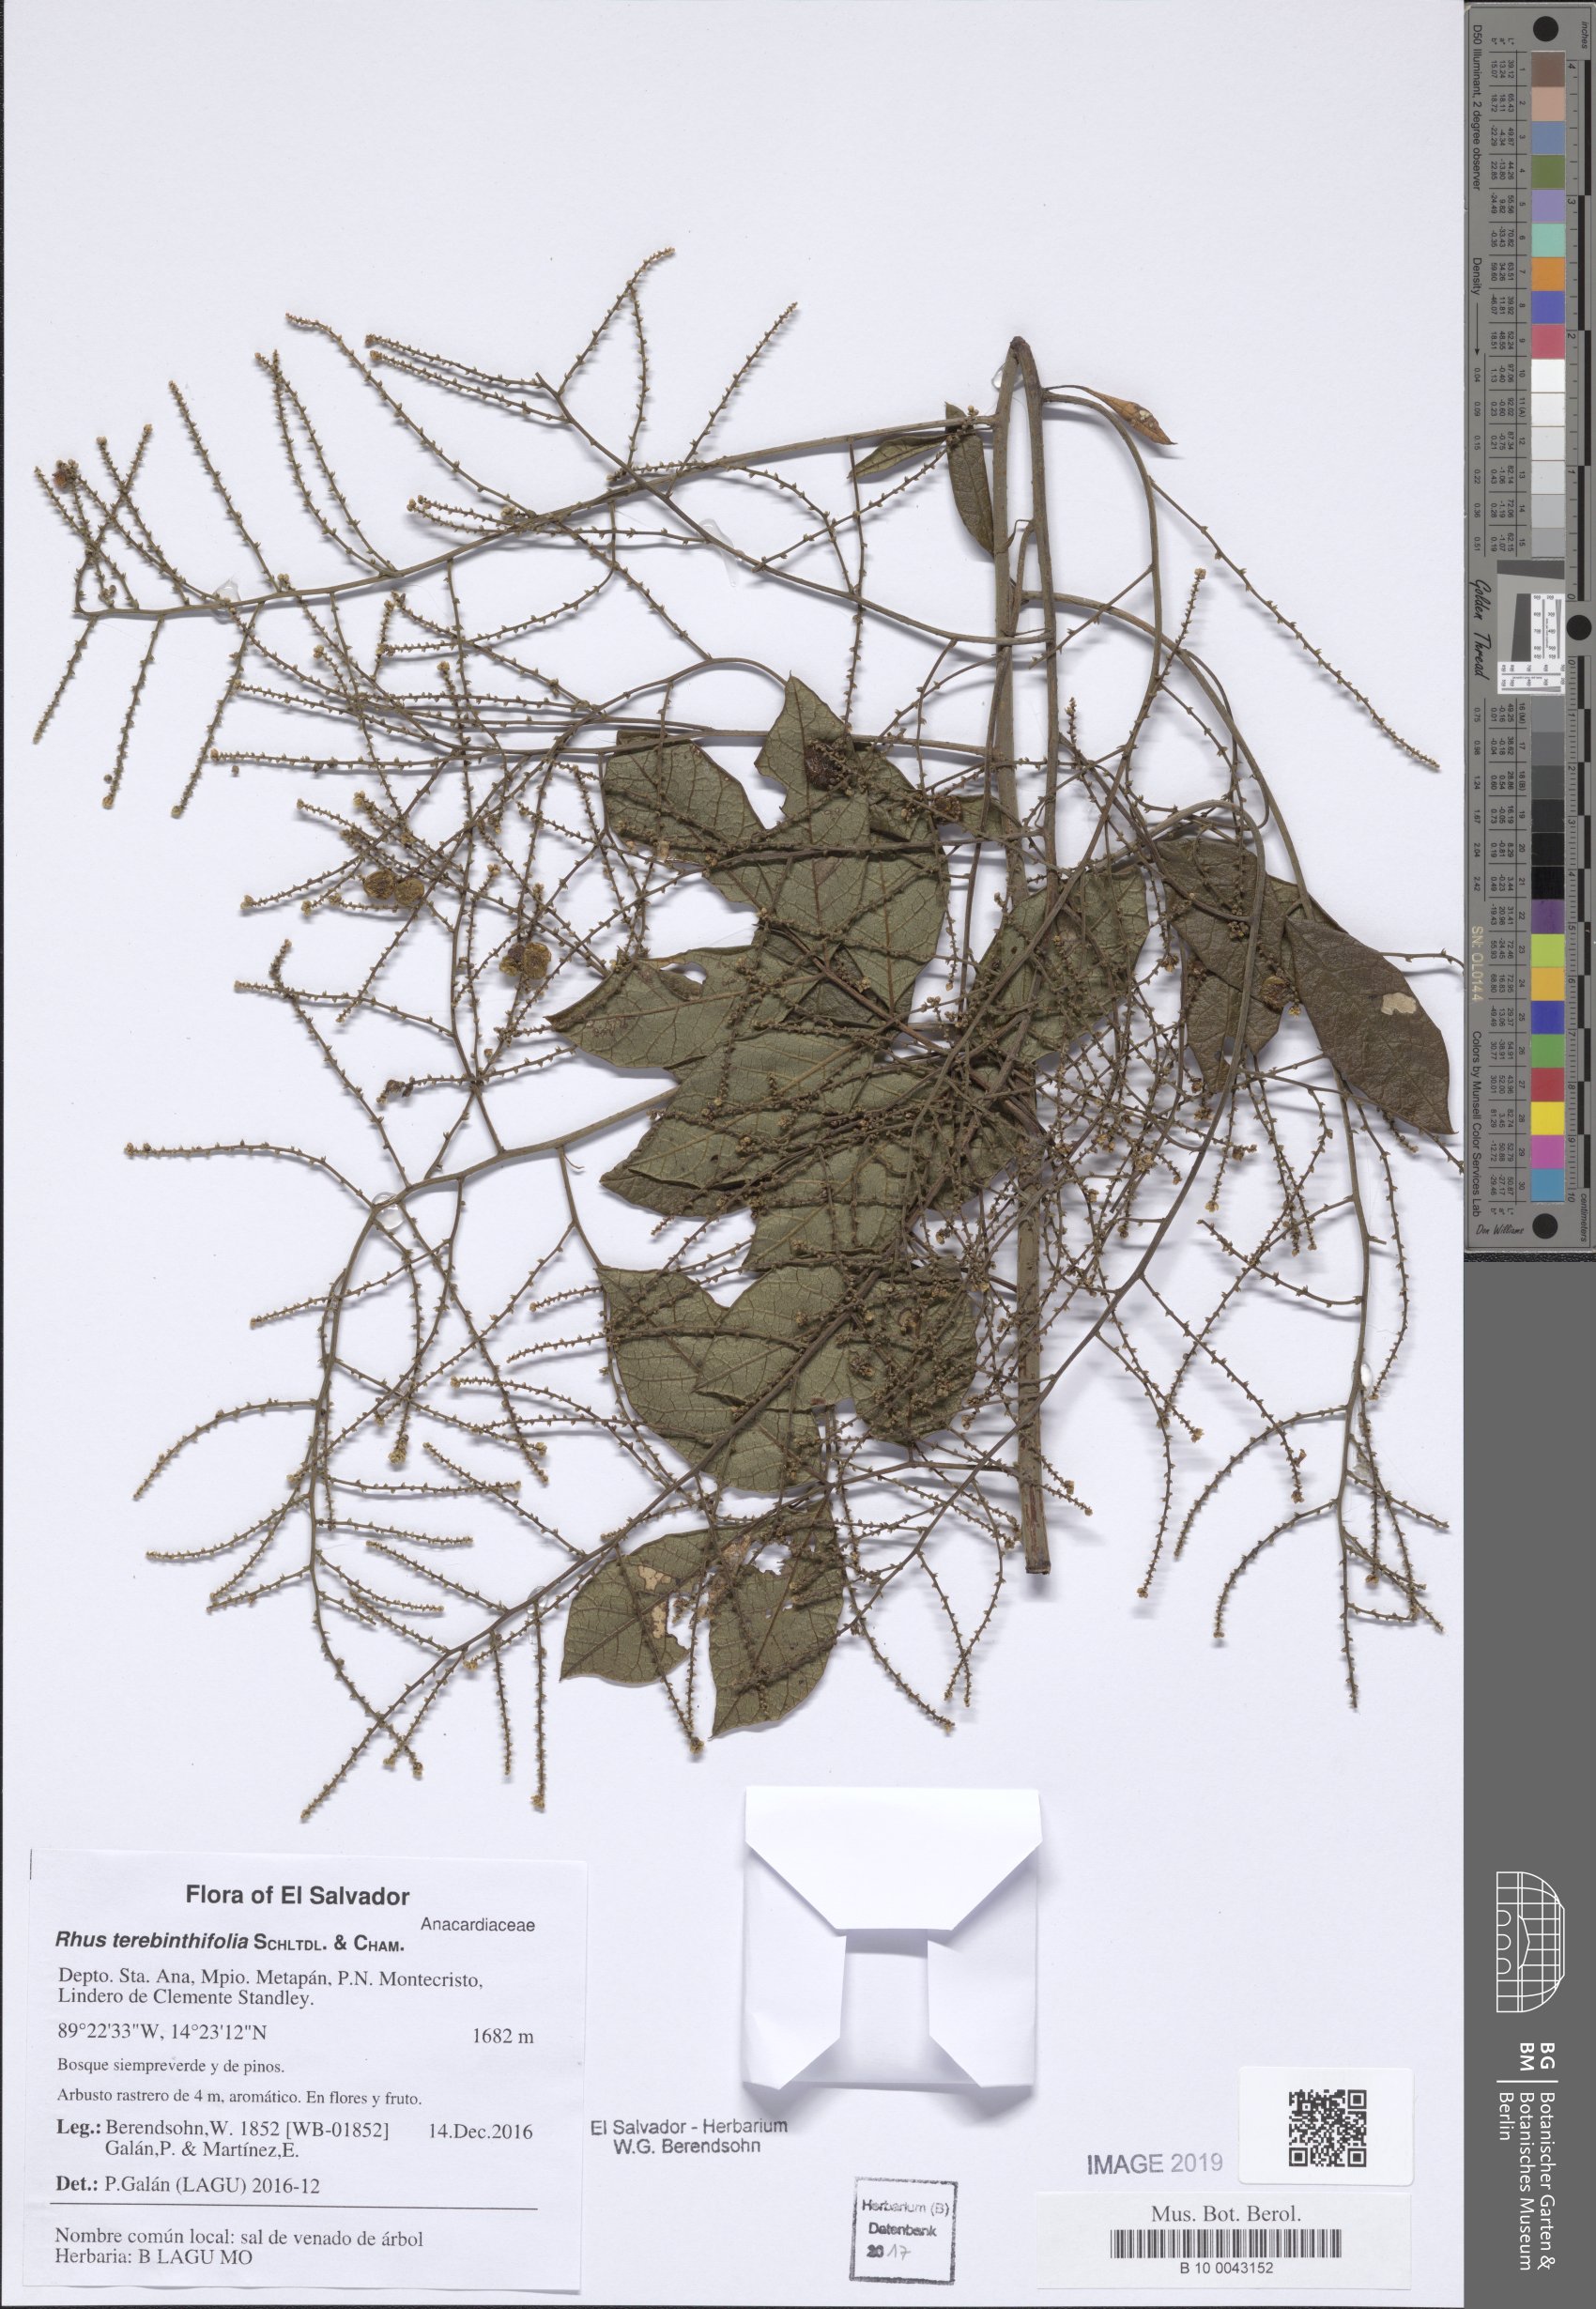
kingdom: Plantae
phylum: Tracheophyta
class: Magnoliopsida
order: Sapindales
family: Anacardiaceae
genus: Rhus
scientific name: Rhus terebinthifolia
